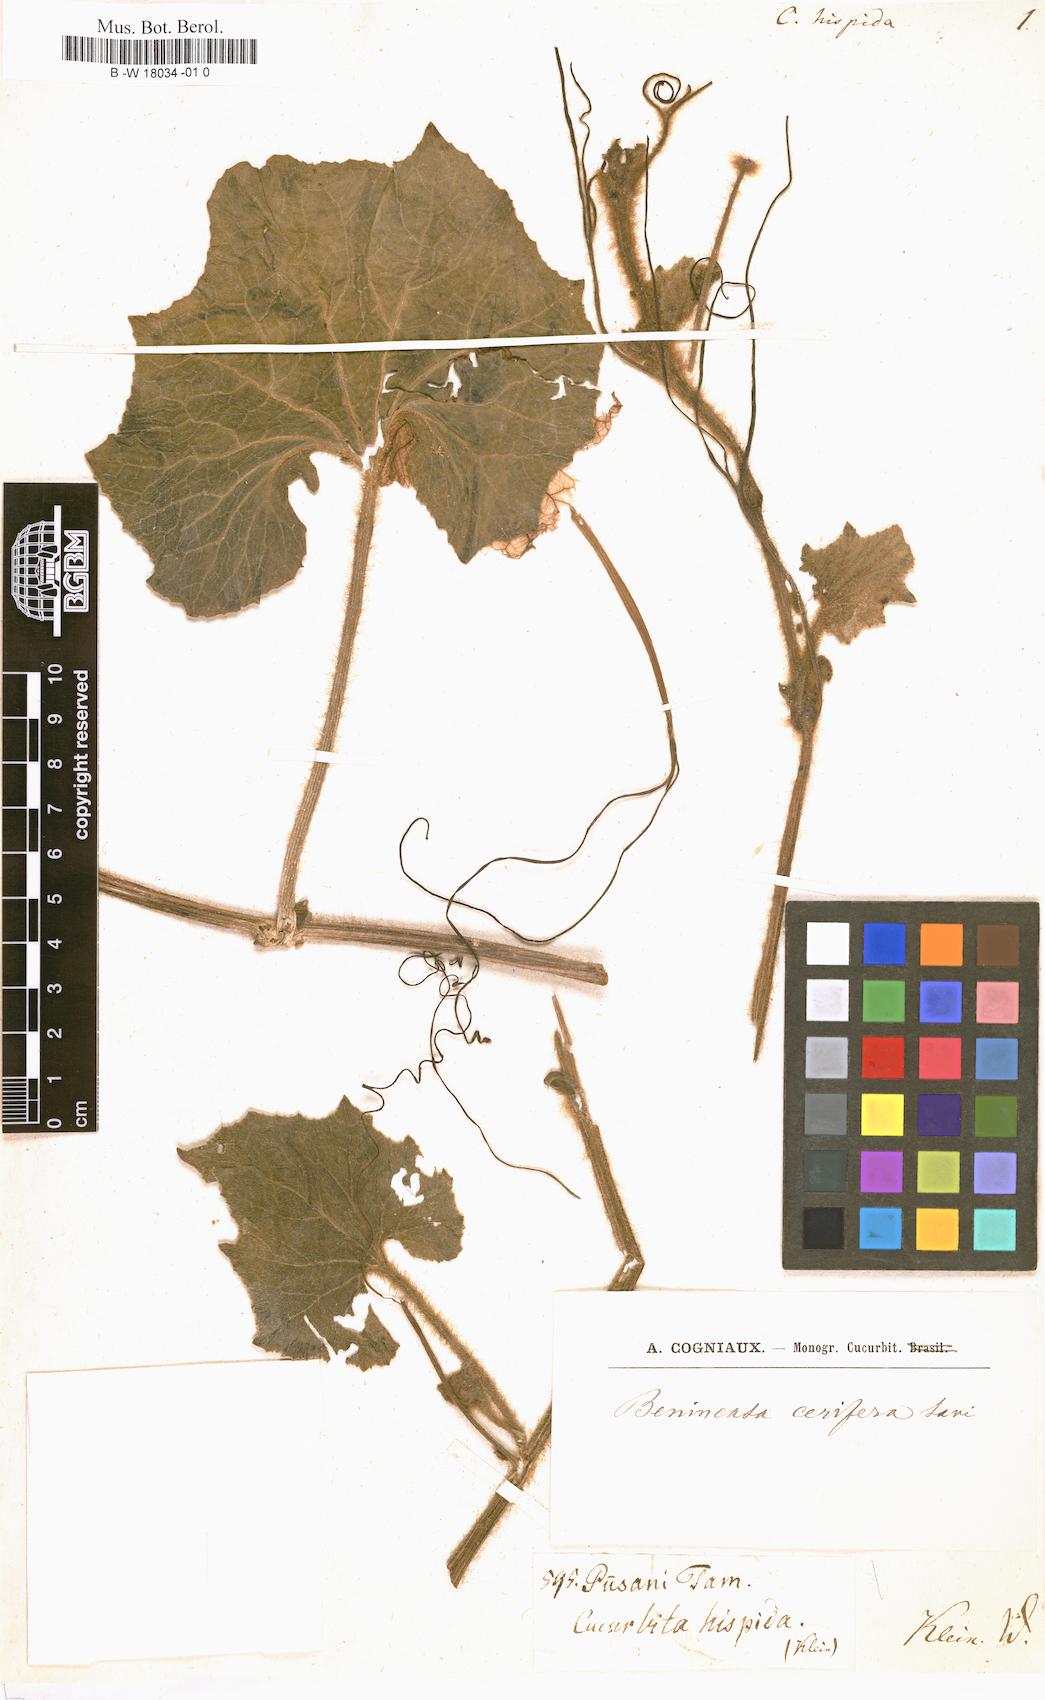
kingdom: Plantae
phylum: Tracheophyta
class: Magnoliopsida
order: Cucurbitales
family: Cucurbitaceae
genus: Benincasa
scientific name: Benincasa
